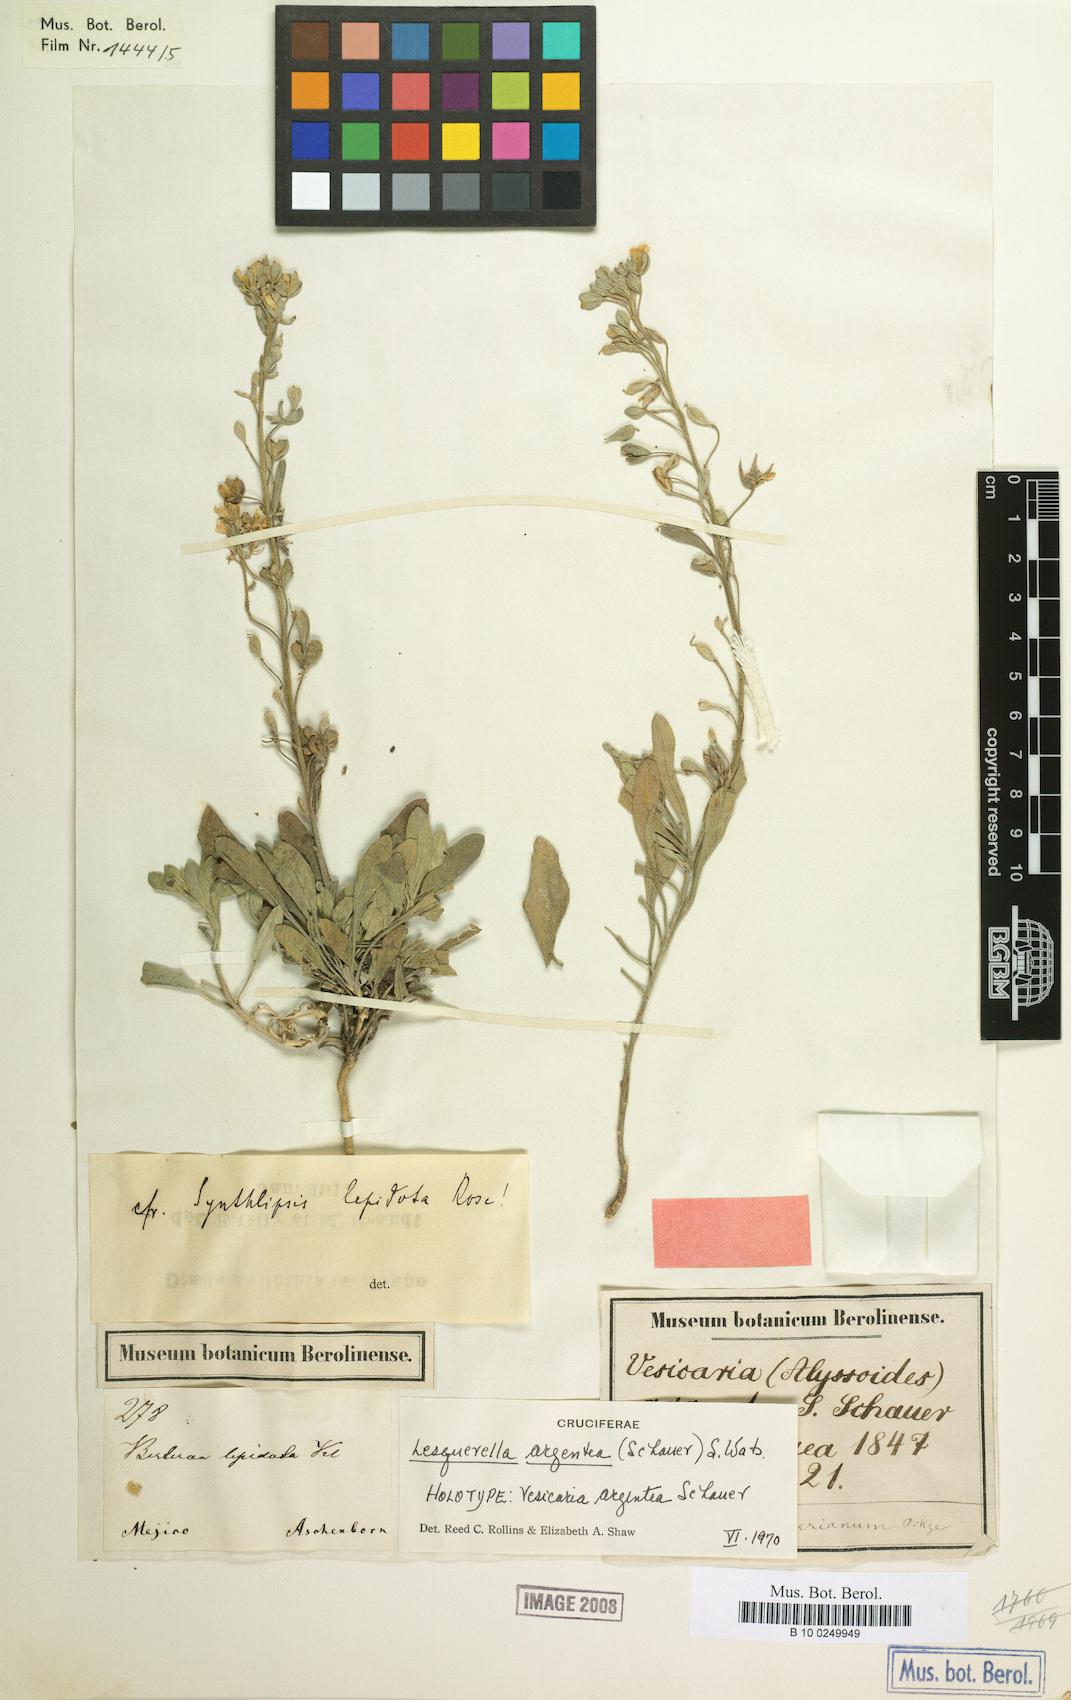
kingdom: Plantae
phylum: Tracheophyta
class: Magnoliopsida
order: Brassicales
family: Brassicaceae
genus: Physaria
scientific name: Physaria argentea
